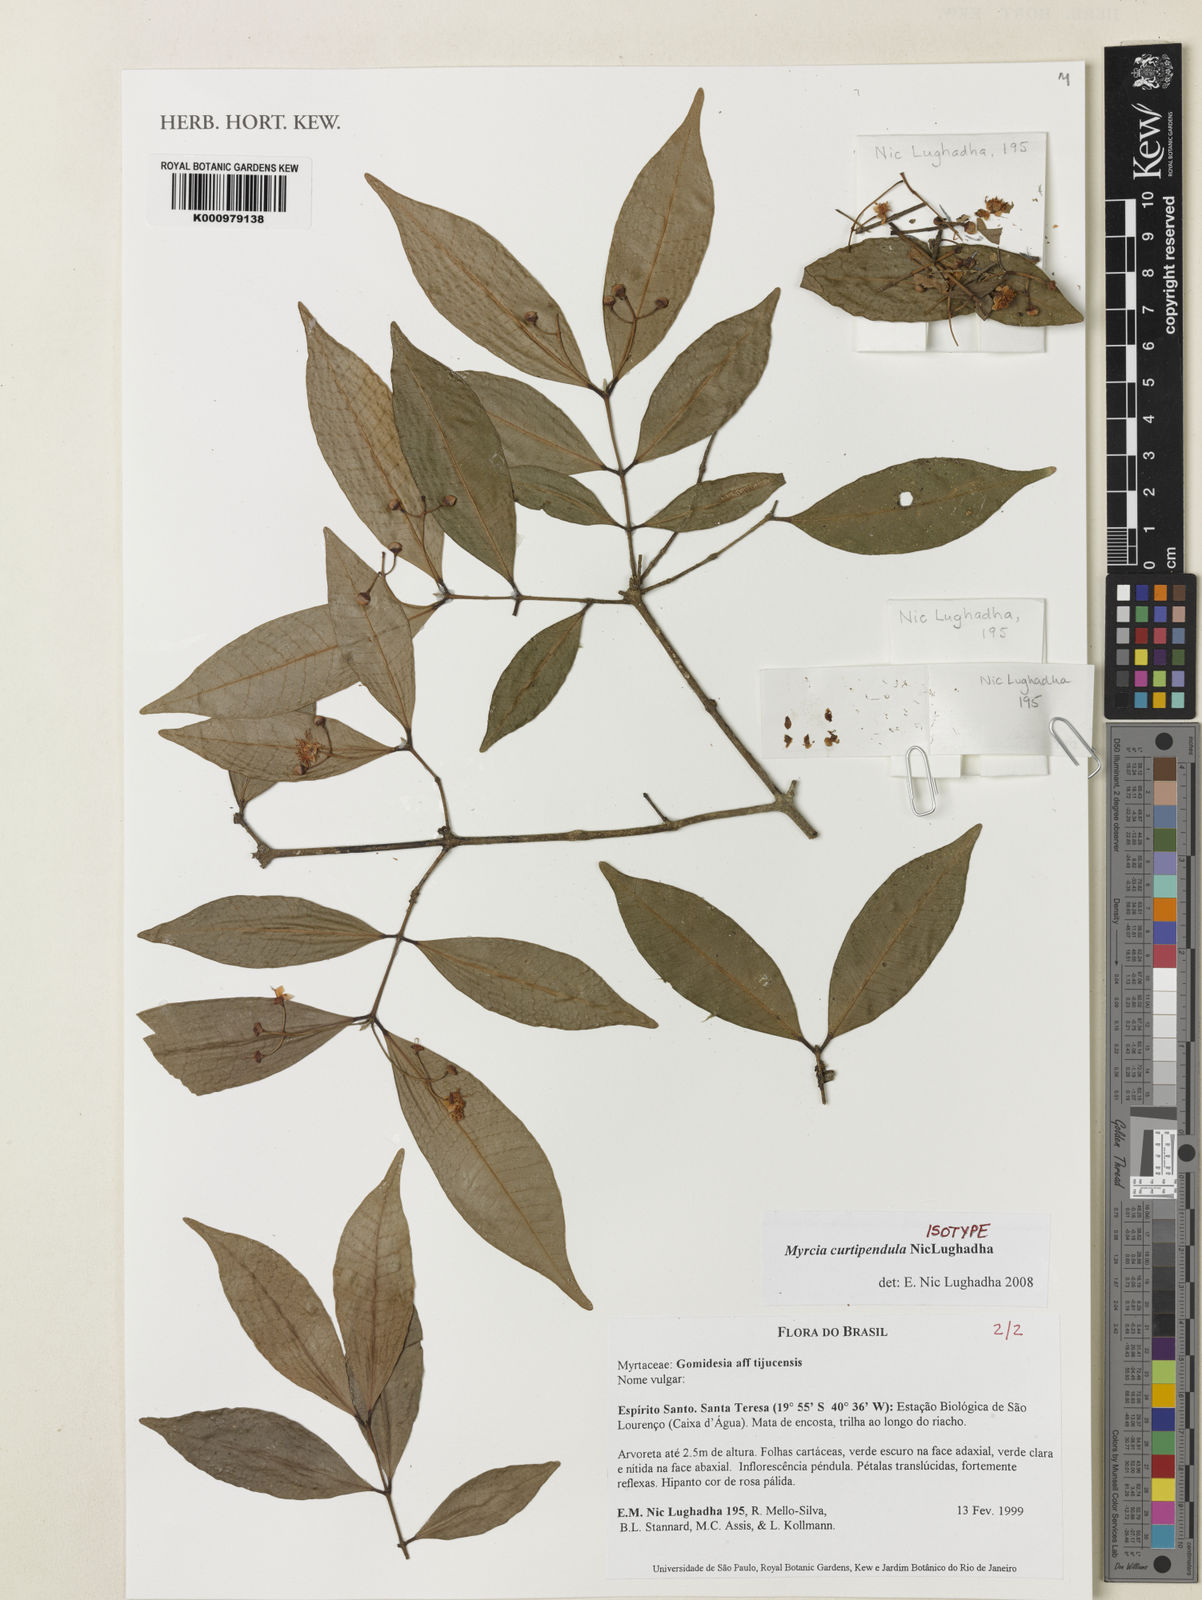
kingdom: Plantae
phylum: Tracheophyta
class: Magnoliopsida
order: Myrtales
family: Myrtaceae
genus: Myrcia
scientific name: Myrcia curtipendula
